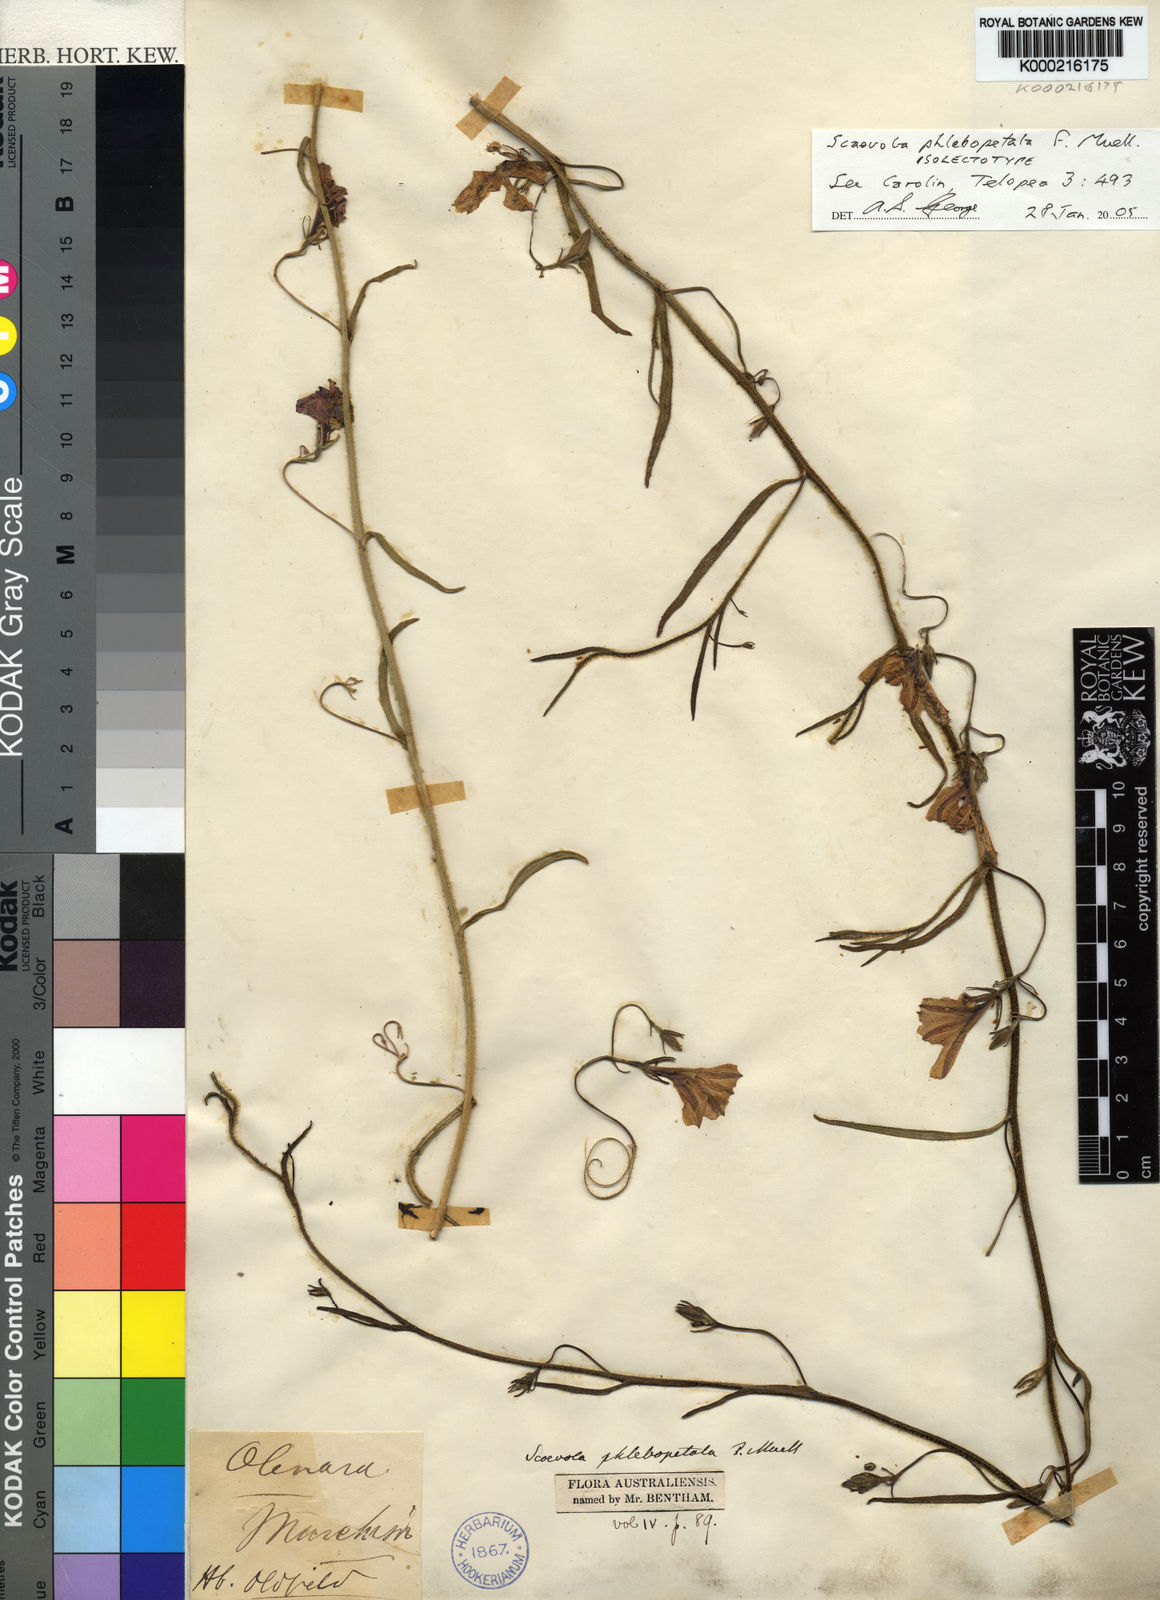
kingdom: Plantae
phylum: Tracheophyta
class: Magnoliopsida
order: Asterales
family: Goodeniaceae
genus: Scaevola
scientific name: Scaevola phlebopetala
